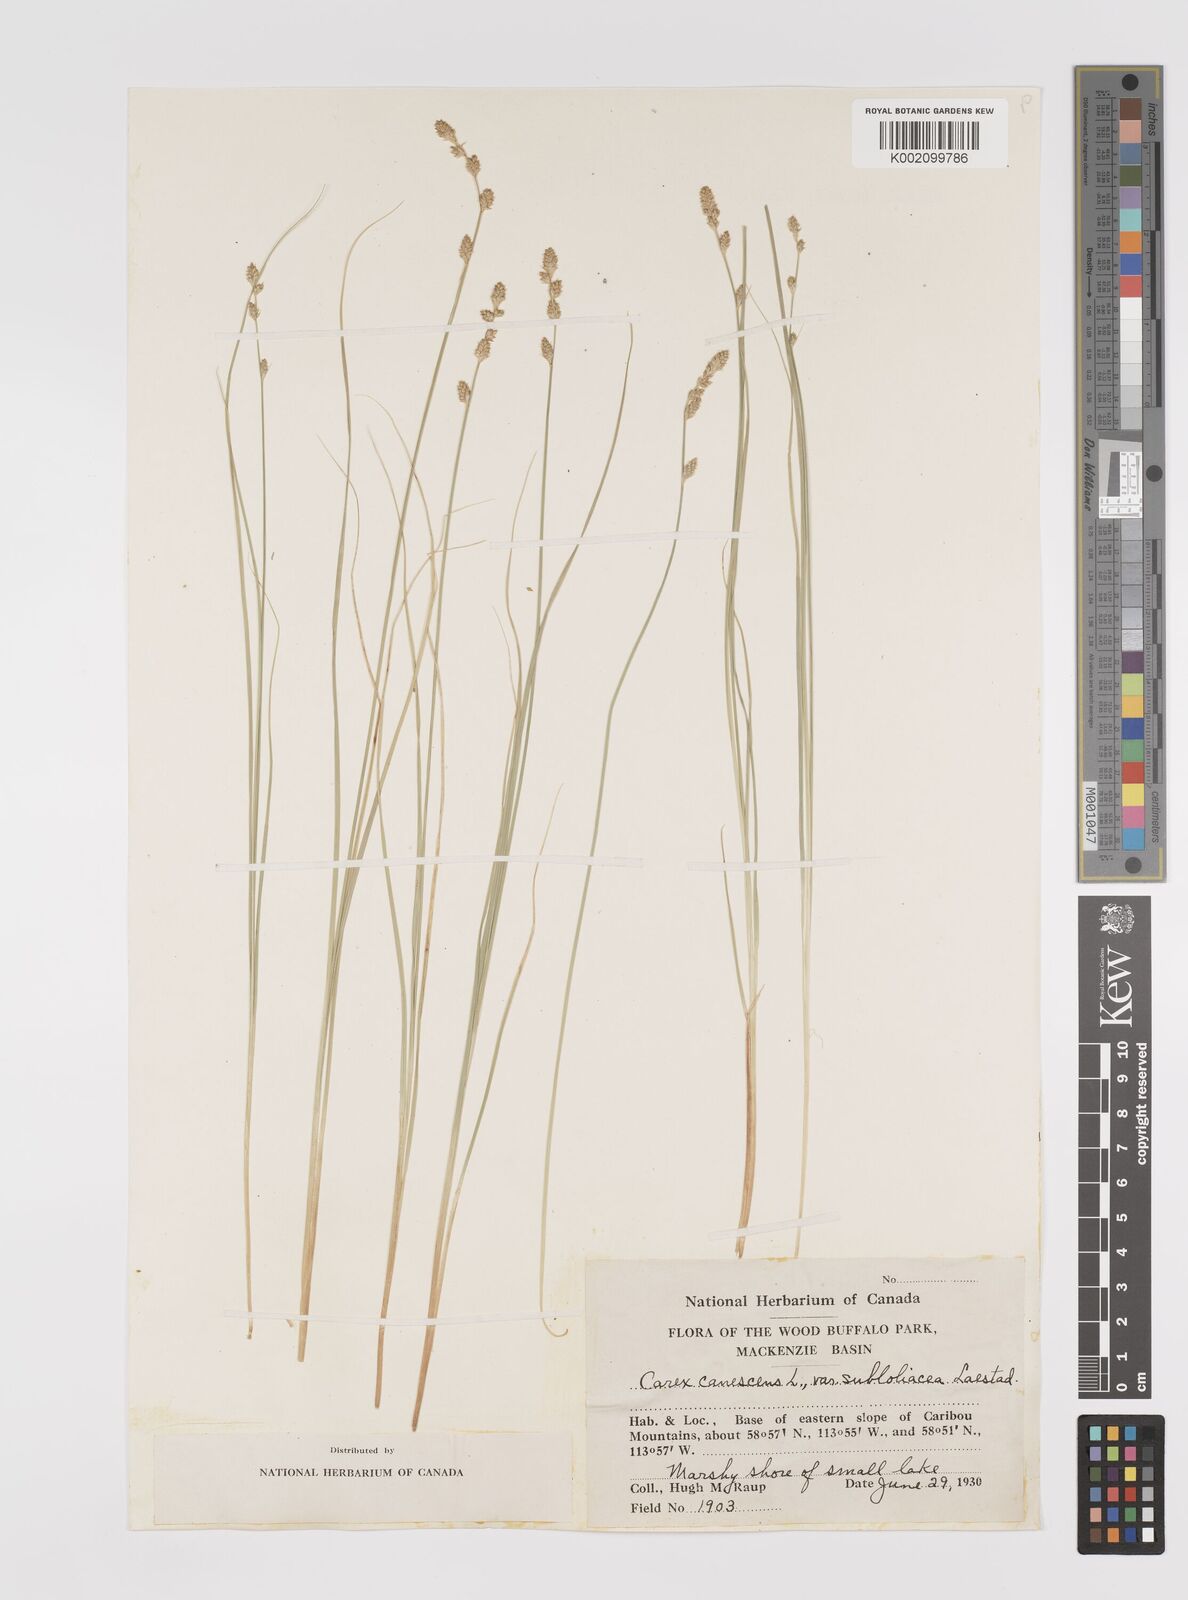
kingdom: Plantae
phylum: Tracheophyta
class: Liliopsida
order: Poales
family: Cyperaceae
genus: Carex
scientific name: Carex curta
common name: White sedge
